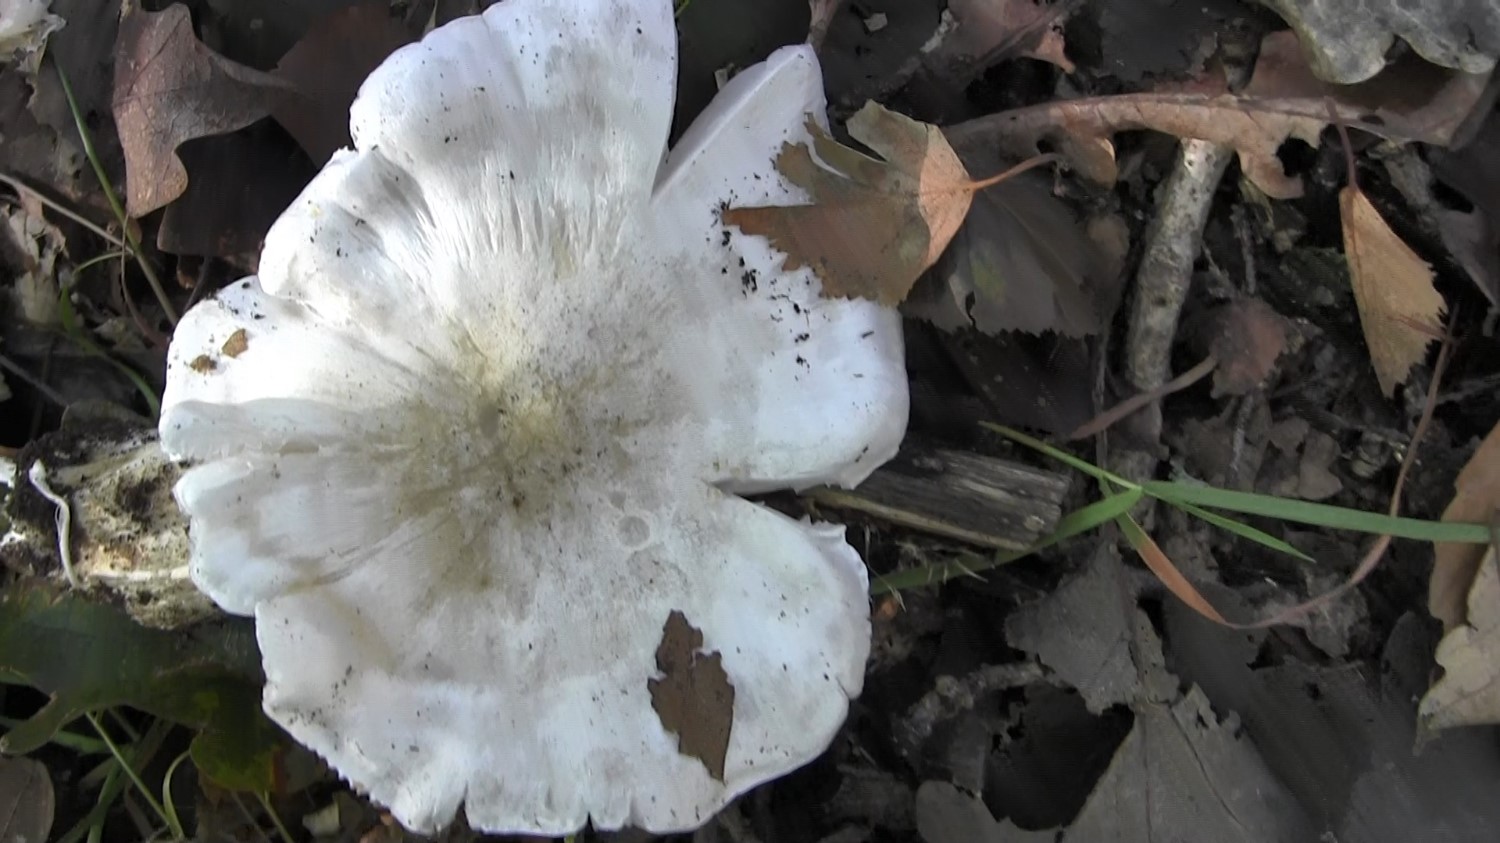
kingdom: Fungi
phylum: Basidiomycota
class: Agaricomycetes
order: Agaricales
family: Tricholomataceae
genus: Tricholoma
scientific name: Tricholoma columbetta
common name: silke-ridderhat
